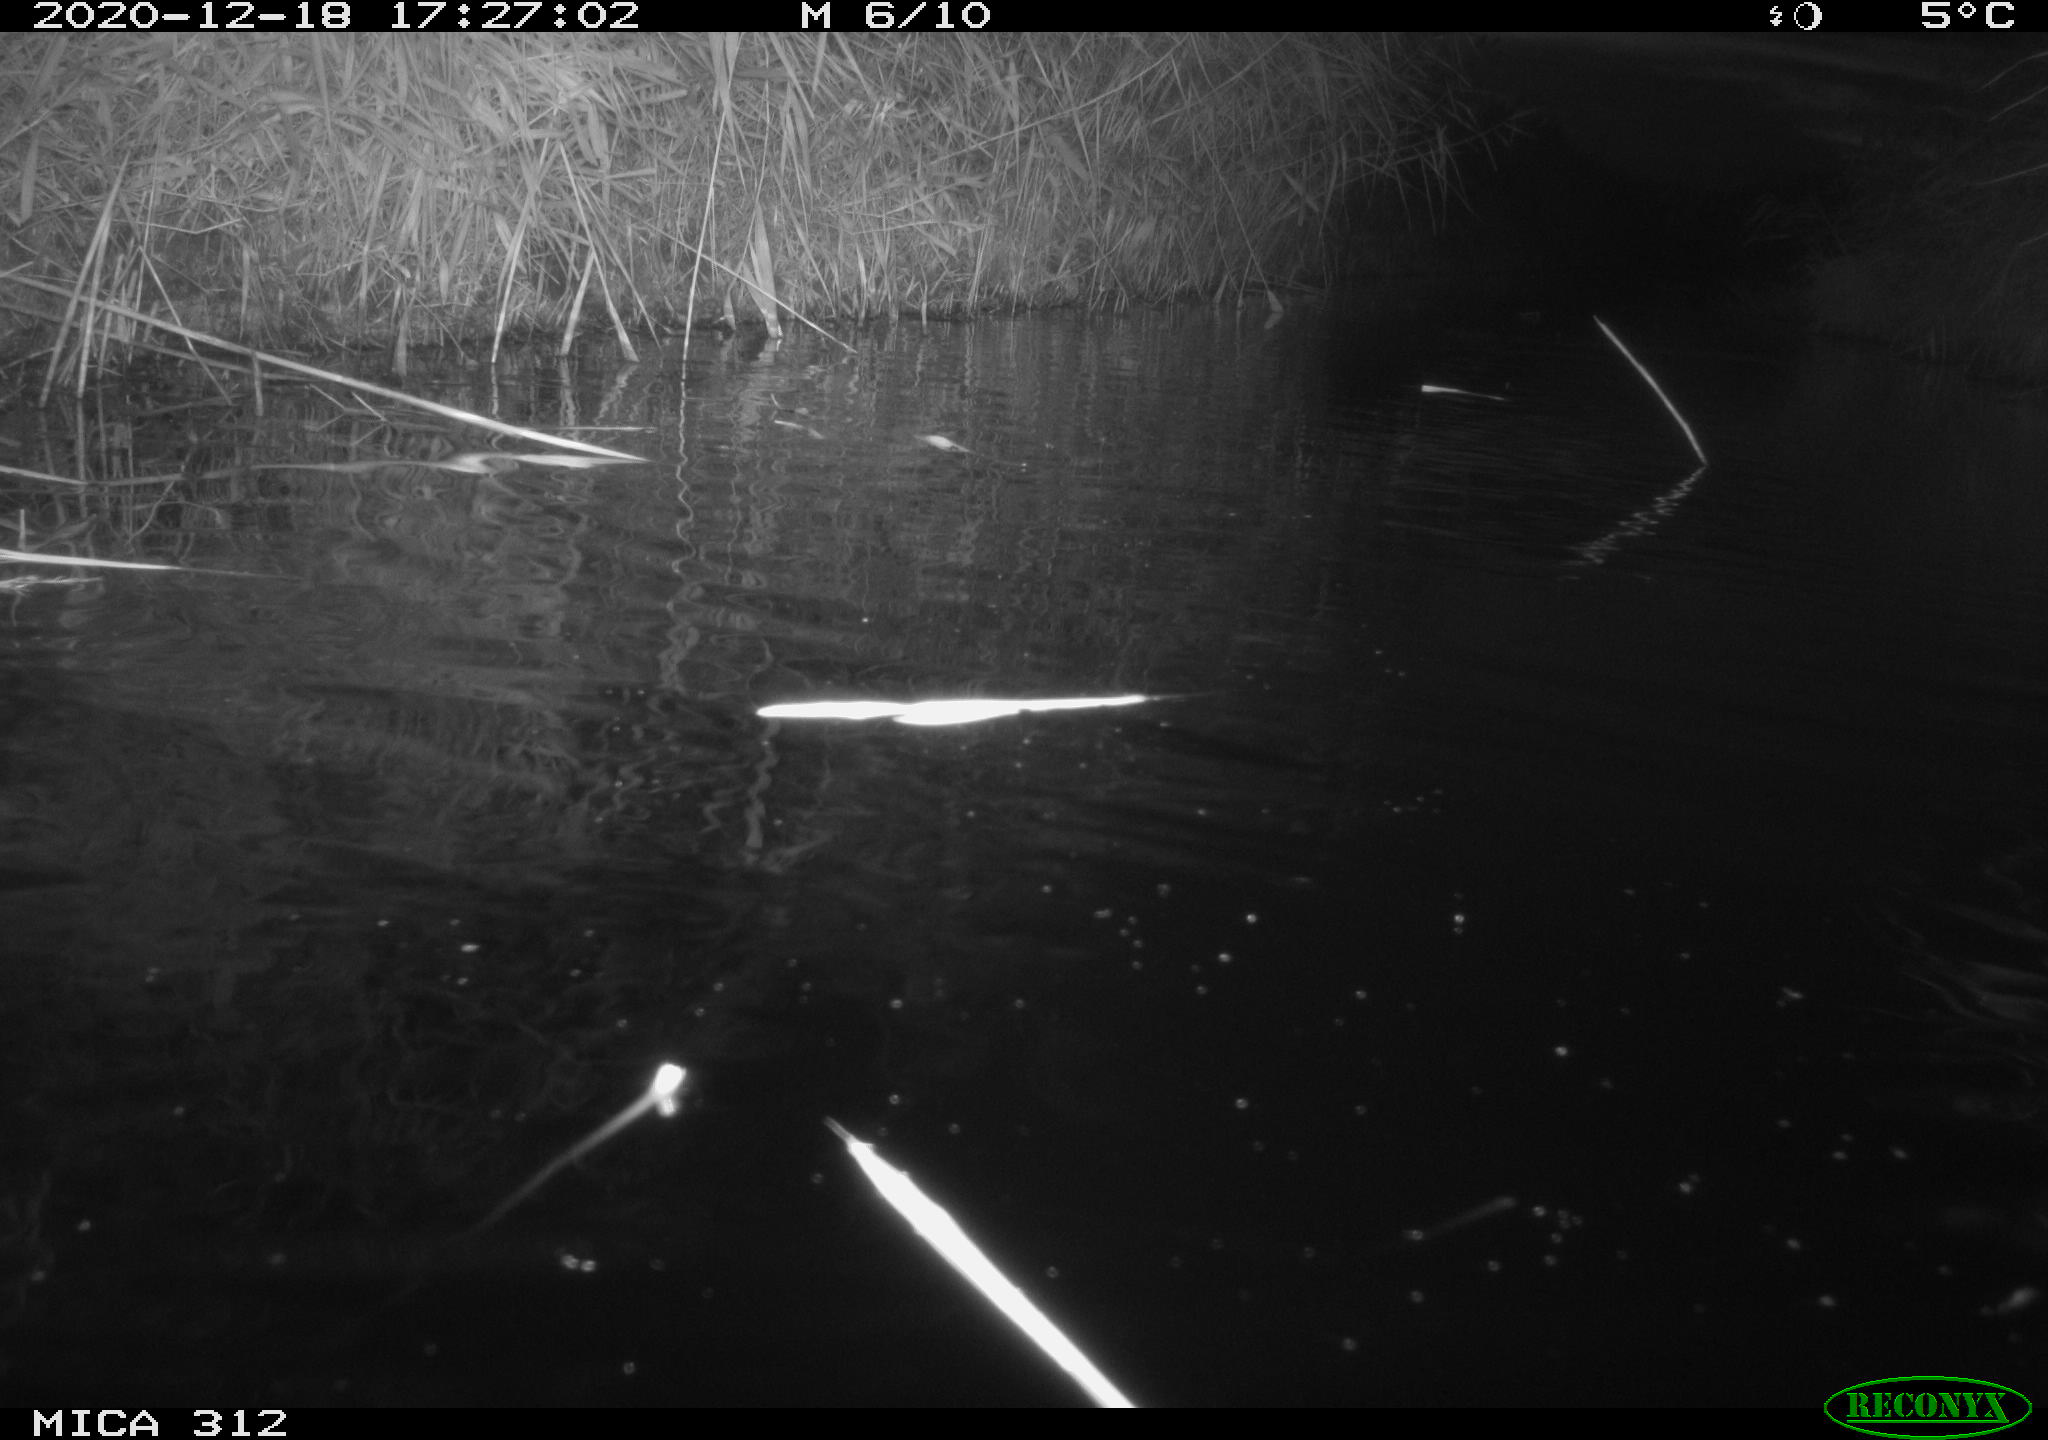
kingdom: Animalia
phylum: Chordata
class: Mammalia
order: Rodentia
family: Muridae
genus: Rattus
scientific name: Rattus norvegicus
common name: Brown rat
